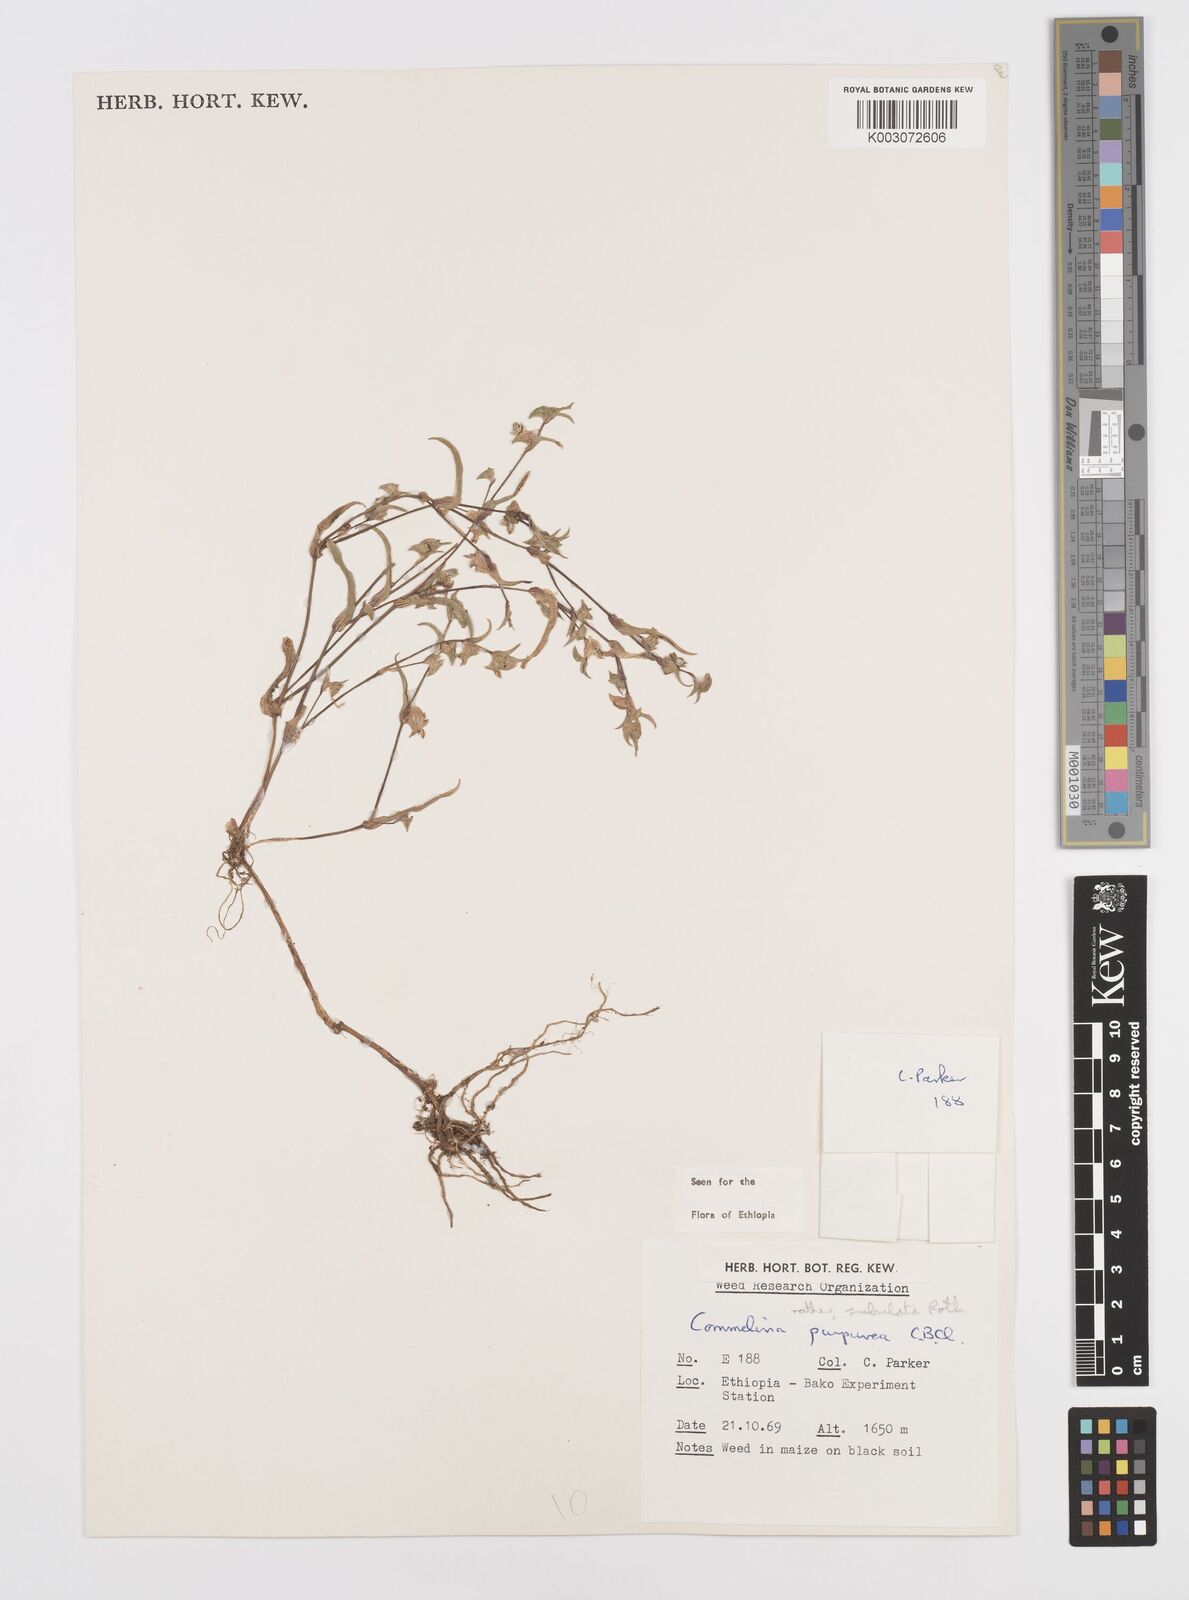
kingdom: Plantae
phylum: Tracheophyta
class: Liliopsida
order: Commelinales
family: Commelinaceae
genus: Commelina
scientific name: Commelina subulata
